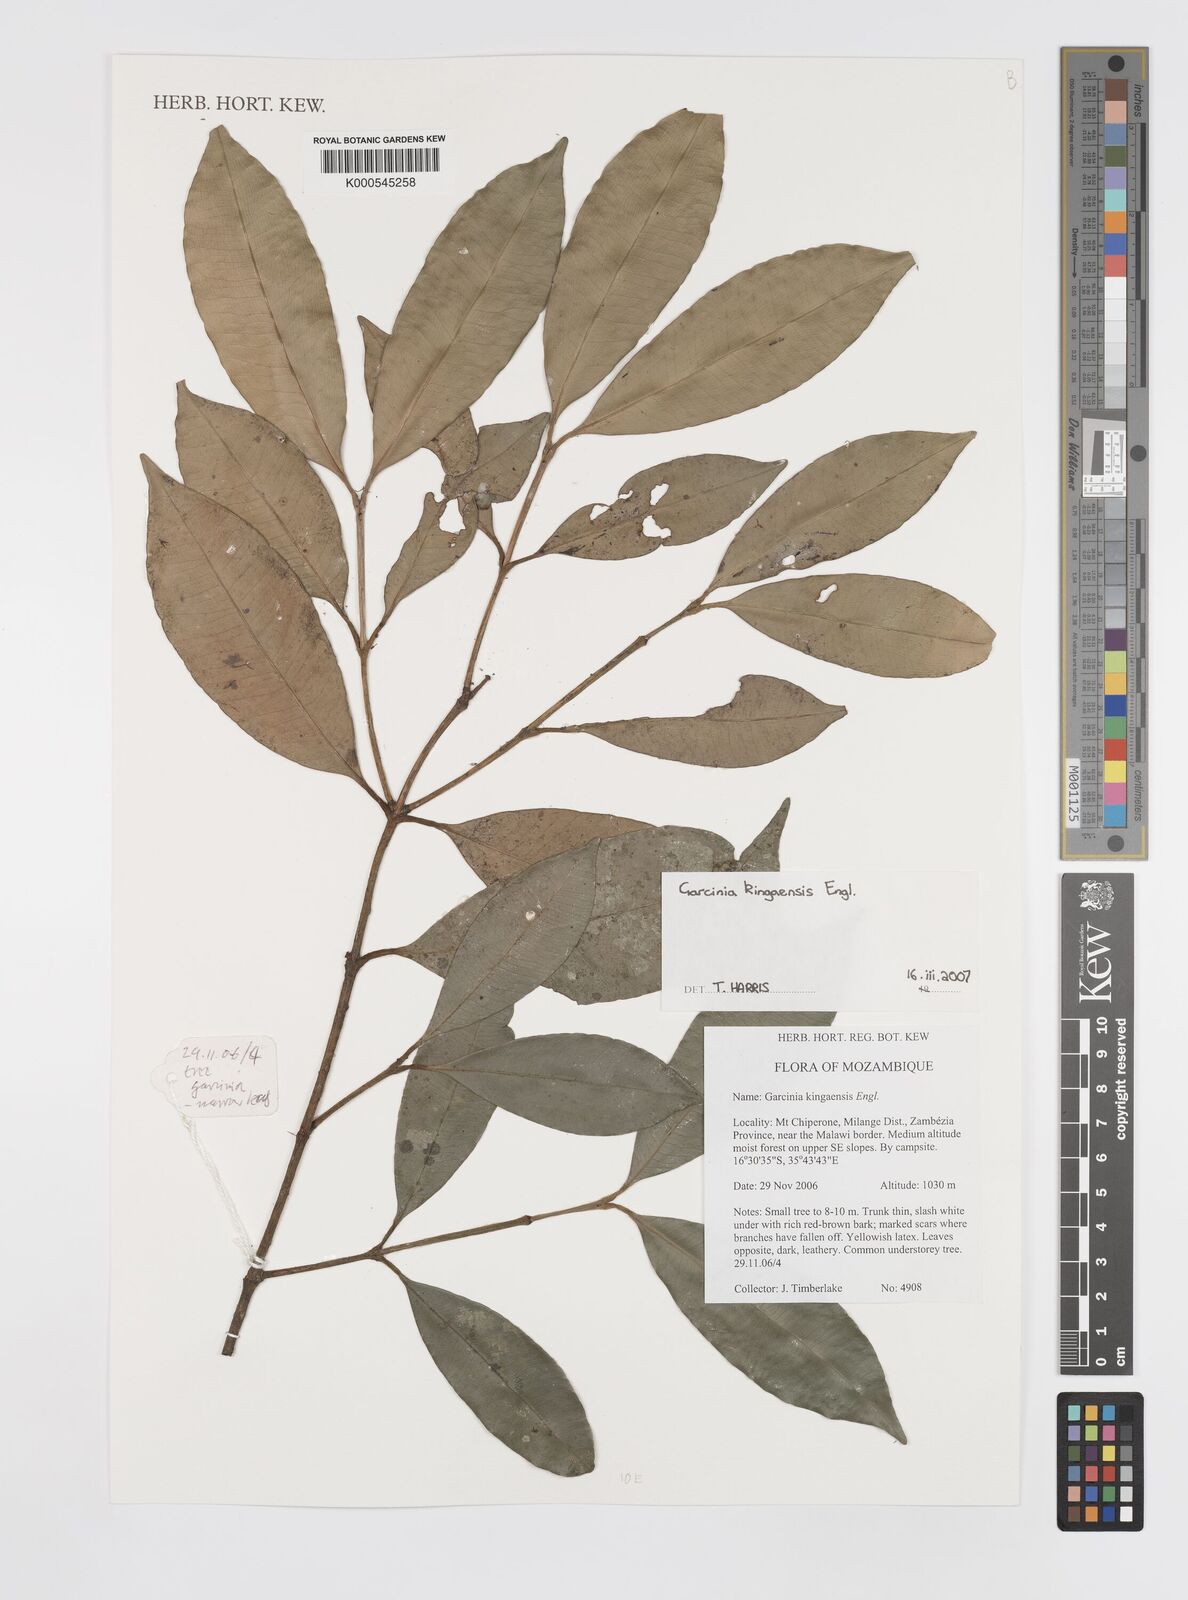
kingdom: Plantae
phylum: Tracheophyta
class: Magnoliopsida
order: Malpighiales
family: Clusiaceae
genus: Garcinia
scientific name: Garcinia kingaensis
